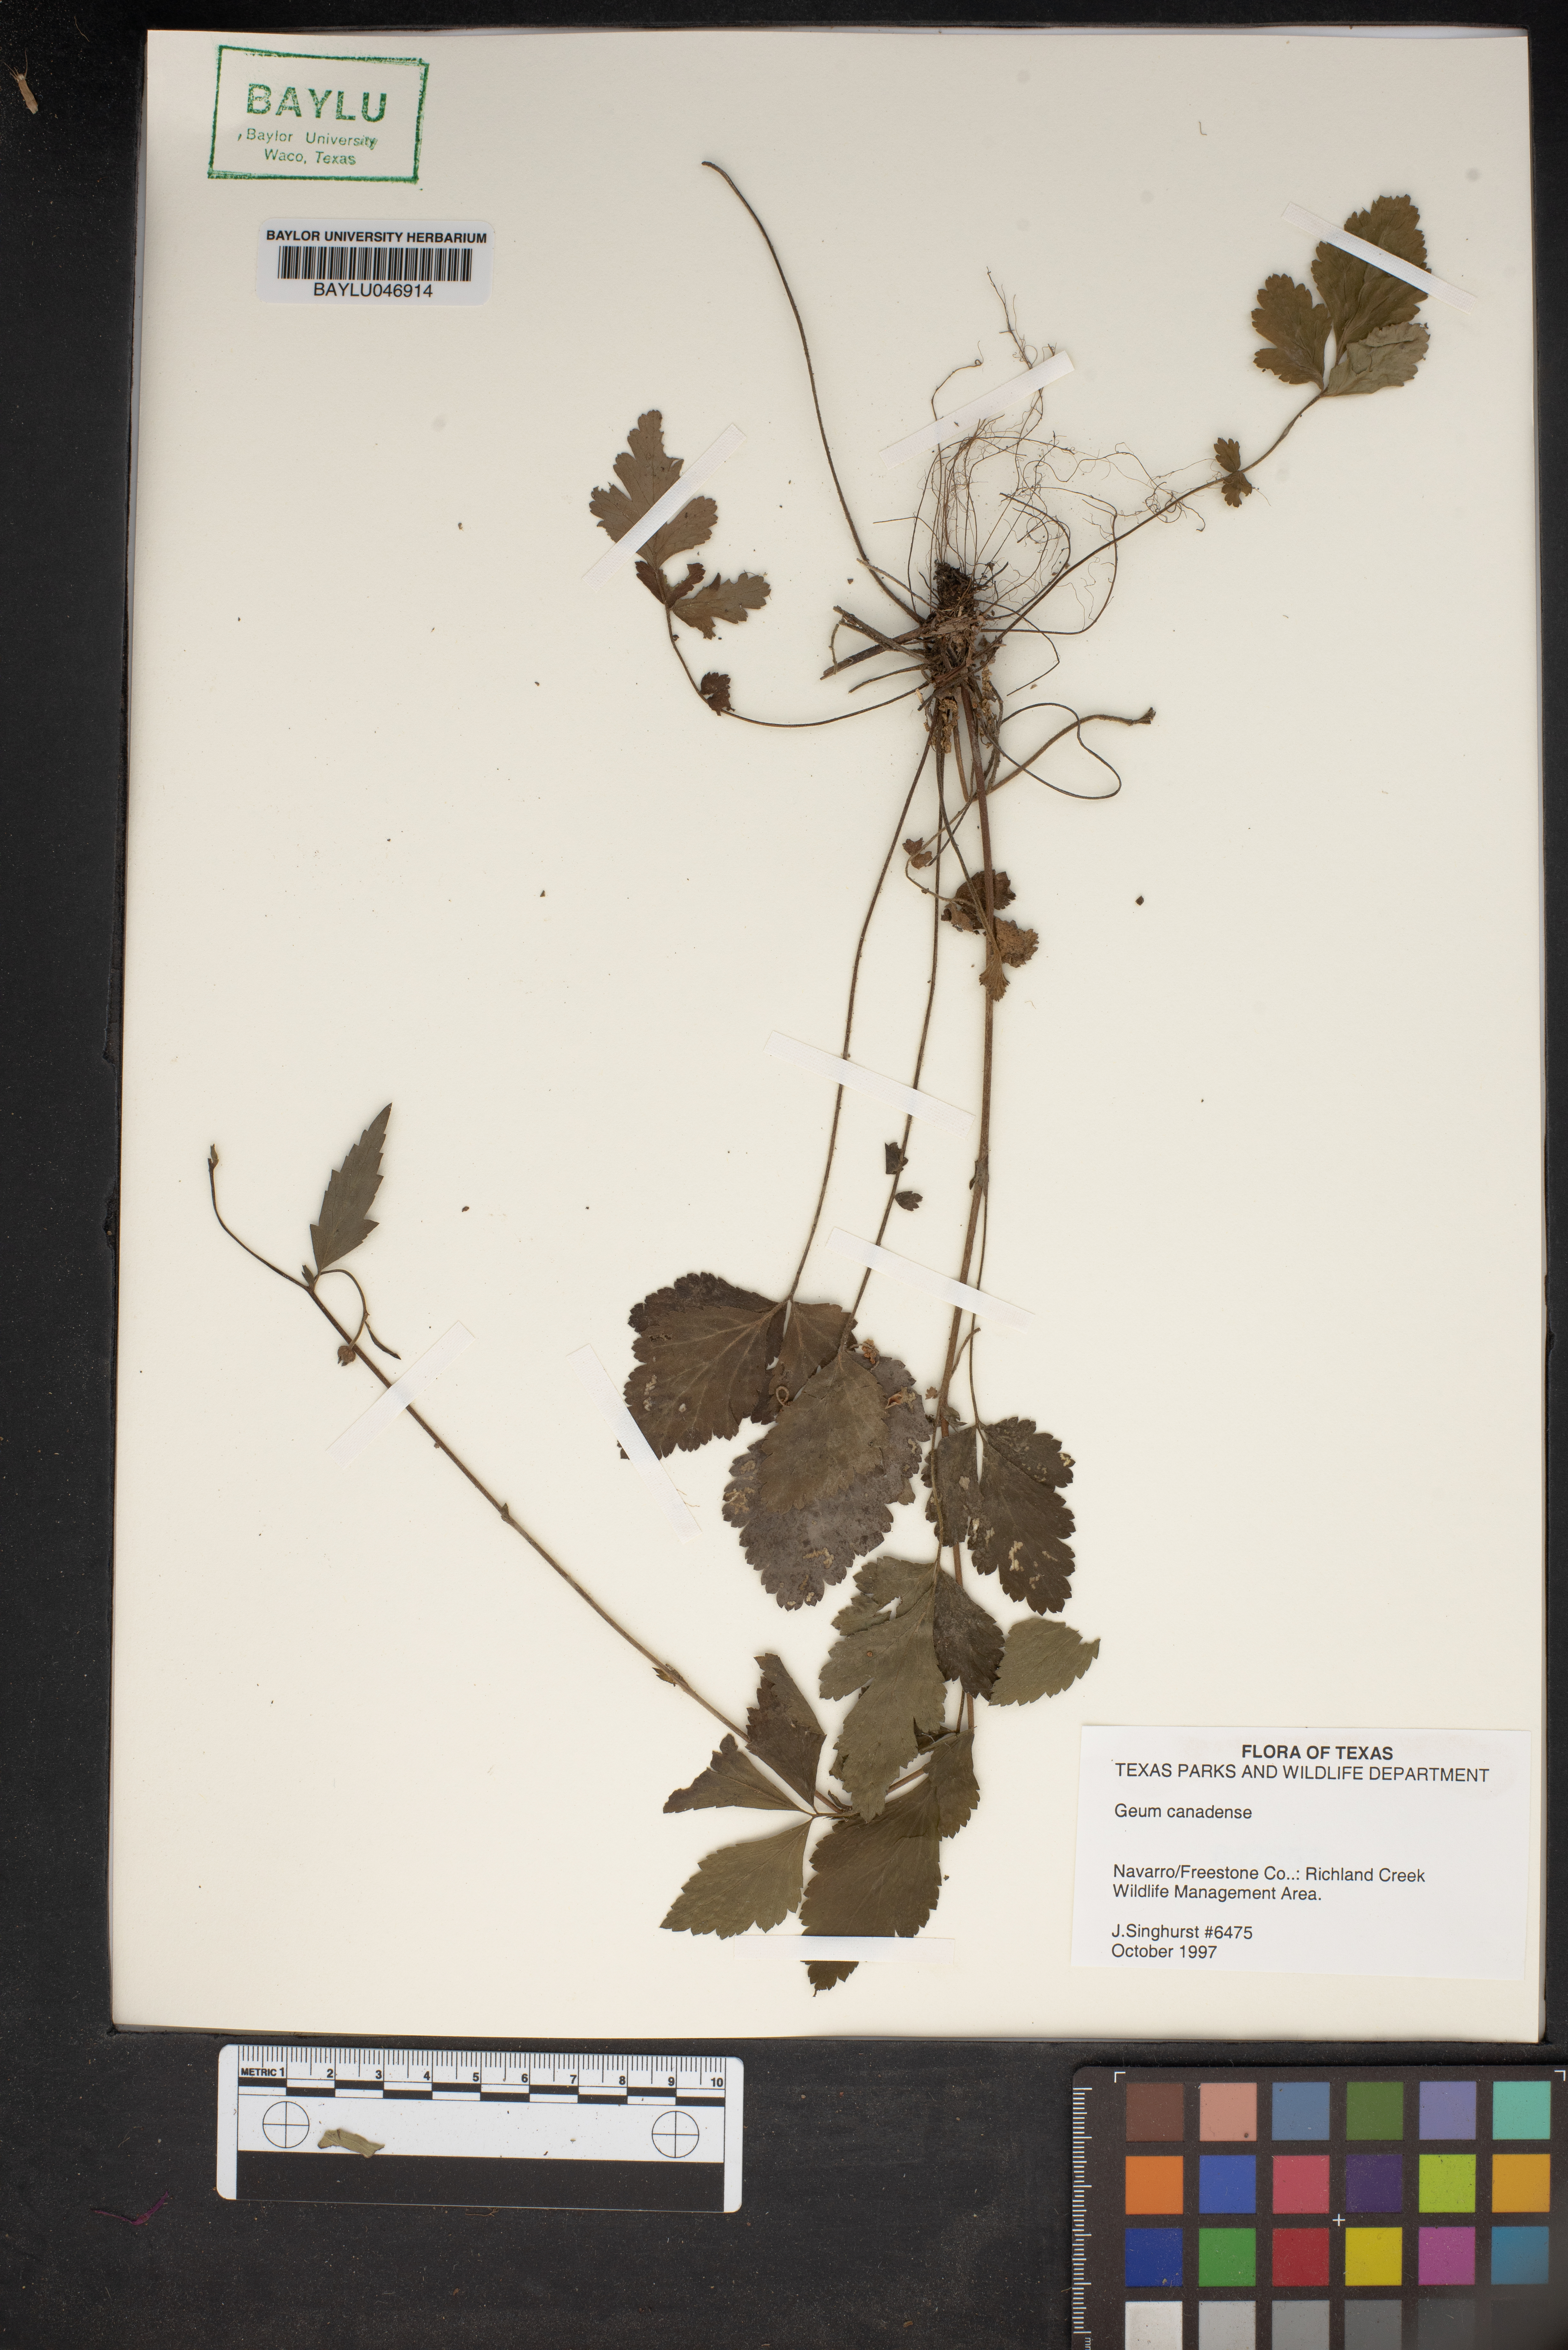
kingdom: Plantae
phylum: Tracheophyta
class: Magnoliopsida
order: Rosales
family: Rosaceae
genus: Geum
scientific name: Geum canadense
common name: White avens
